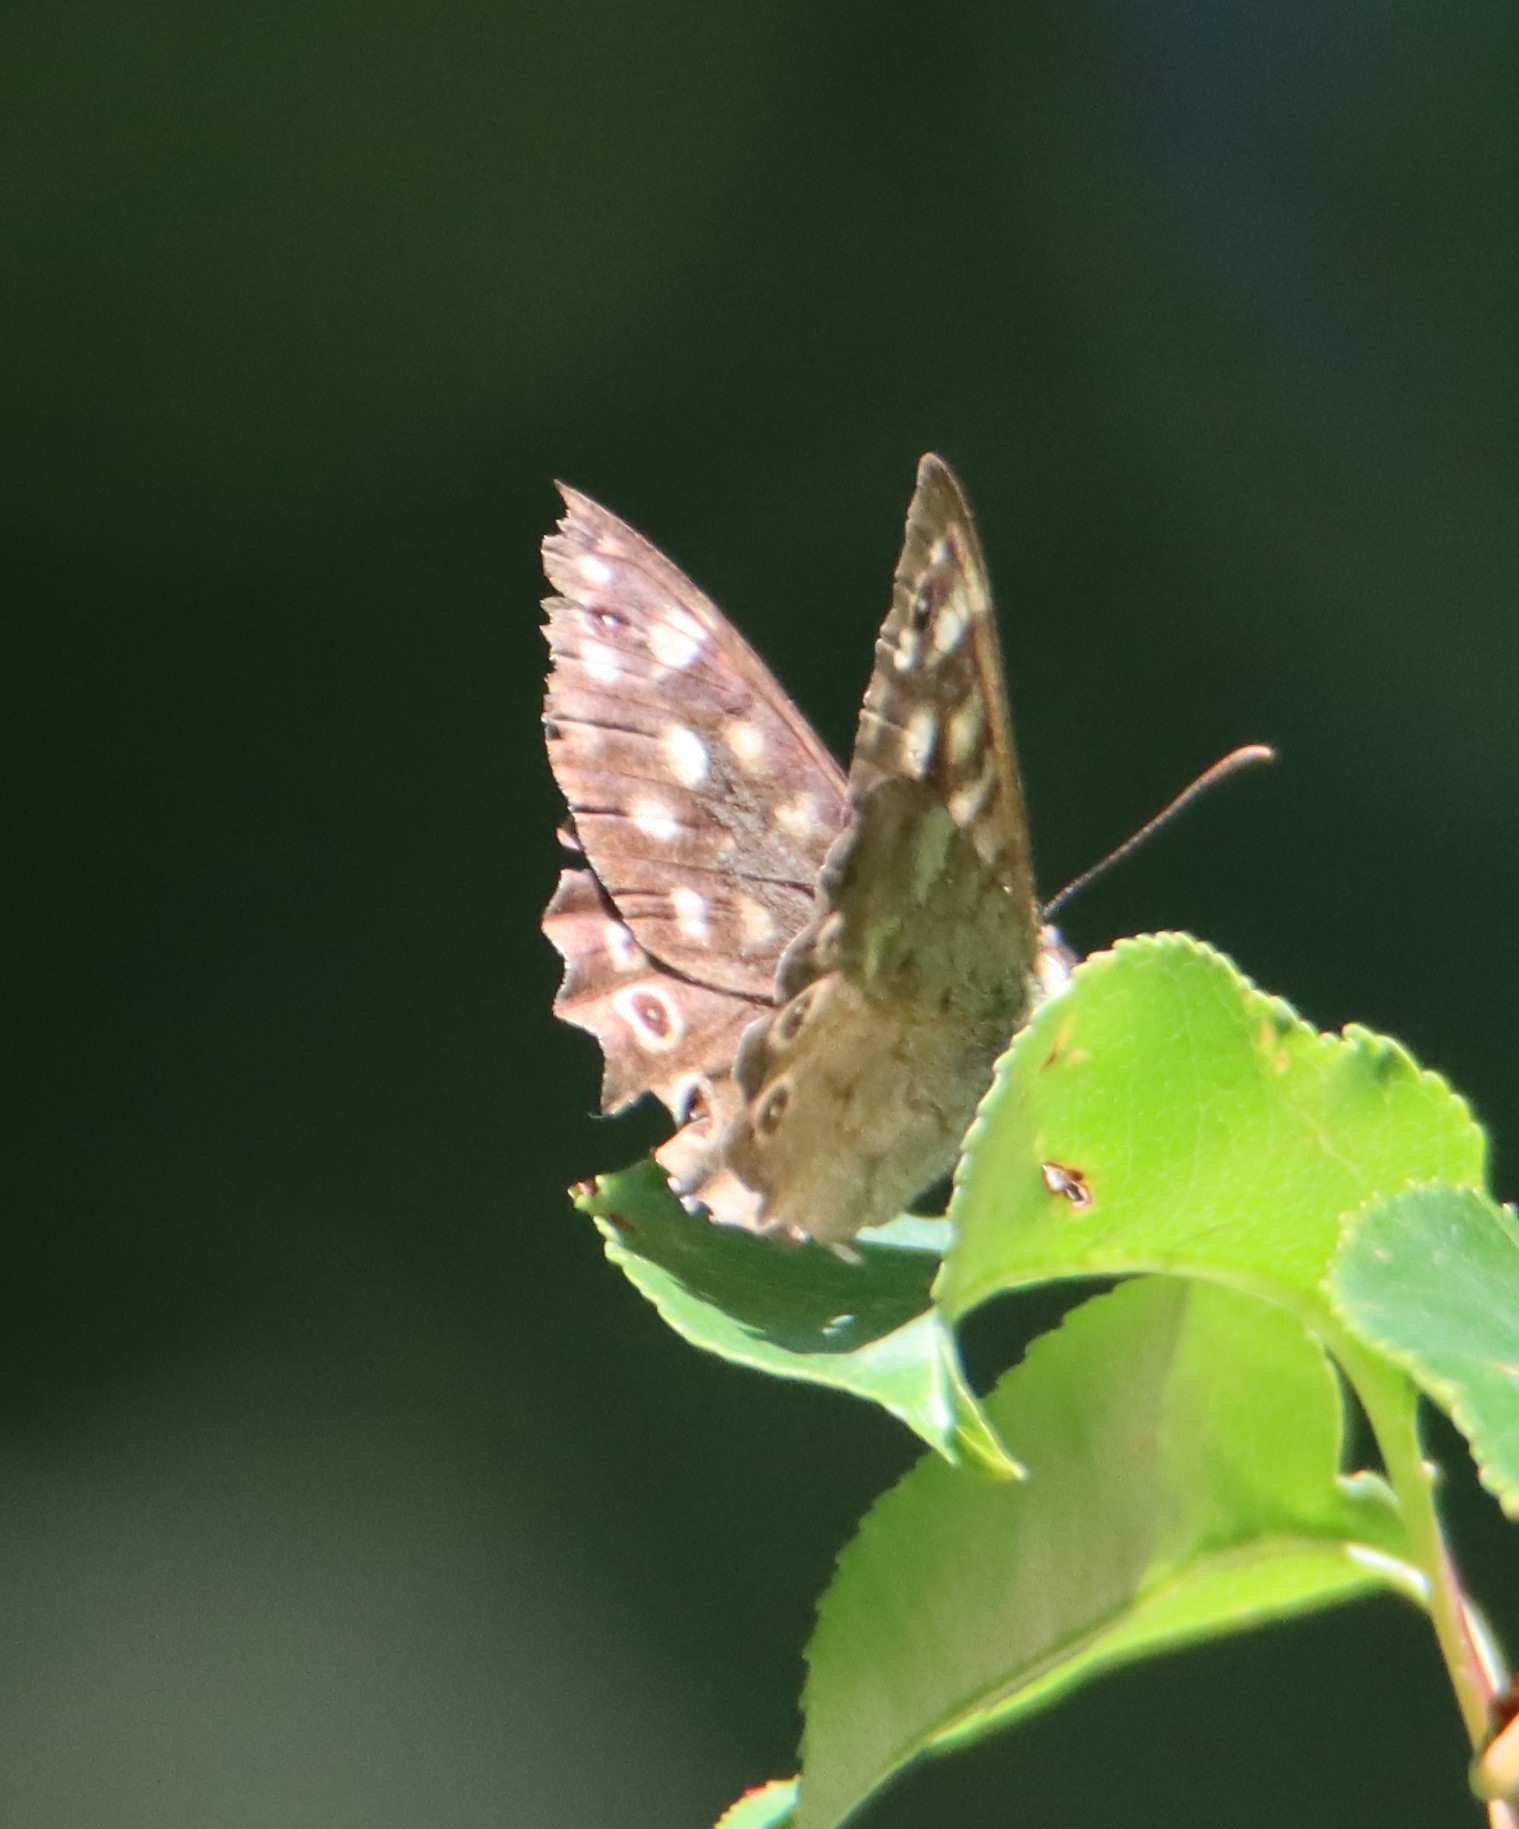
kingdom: Animalia
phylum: Arthropoda
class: Insecta
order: Lepidoptera
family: Nymphalidae
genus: Pararge
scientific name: Pararge aegeria
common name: Skovrandøje
